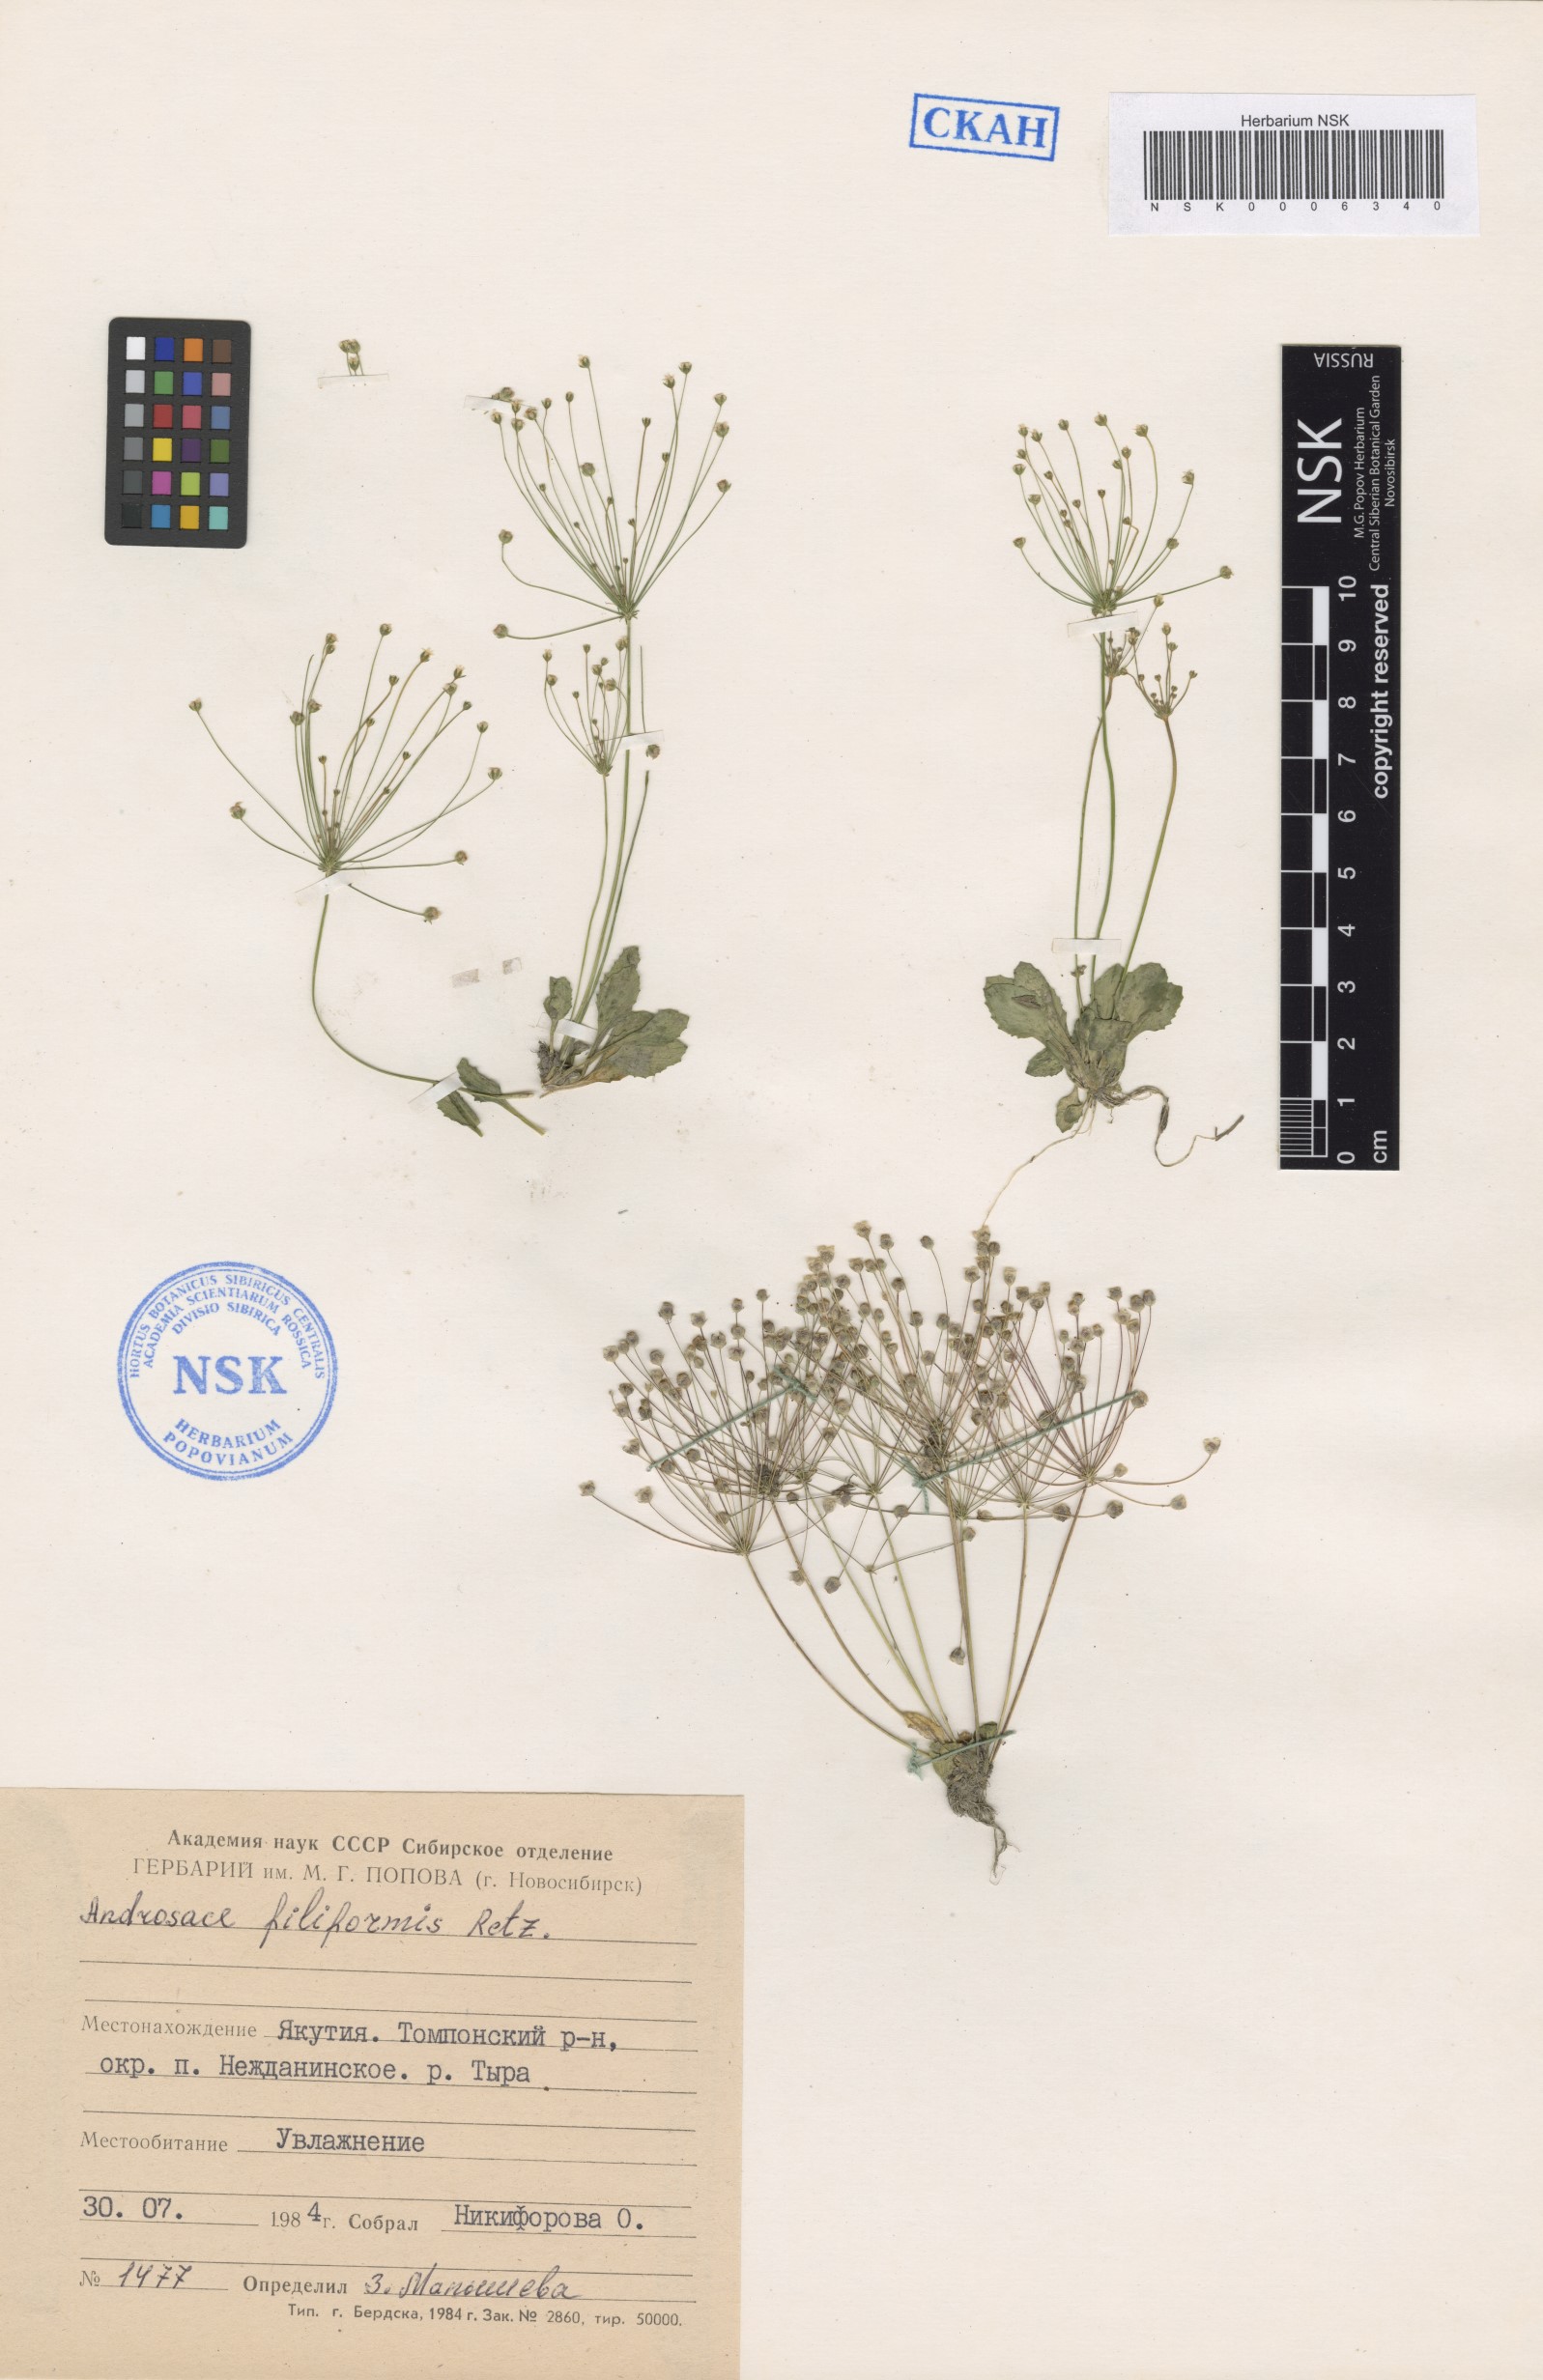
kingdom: Plantae
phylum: Tracheophyta
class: Magnoliopsida
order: Ericales
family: Primulaceae
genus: Androsace
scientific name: Androsace filiformis
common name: Filiform rock jasmine
